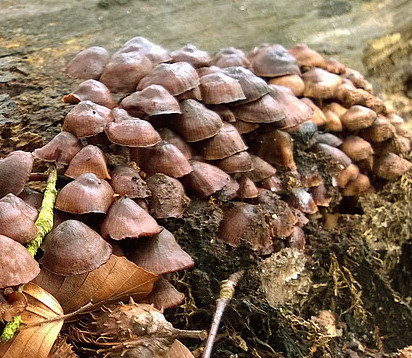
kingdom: Fungi
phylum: Basidiomycota
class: Agaricomycetes
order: Agaricales
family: Mycenaceae
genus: Mycena
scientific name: Mycena tintinnabulum
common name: vinter-huesvamp
